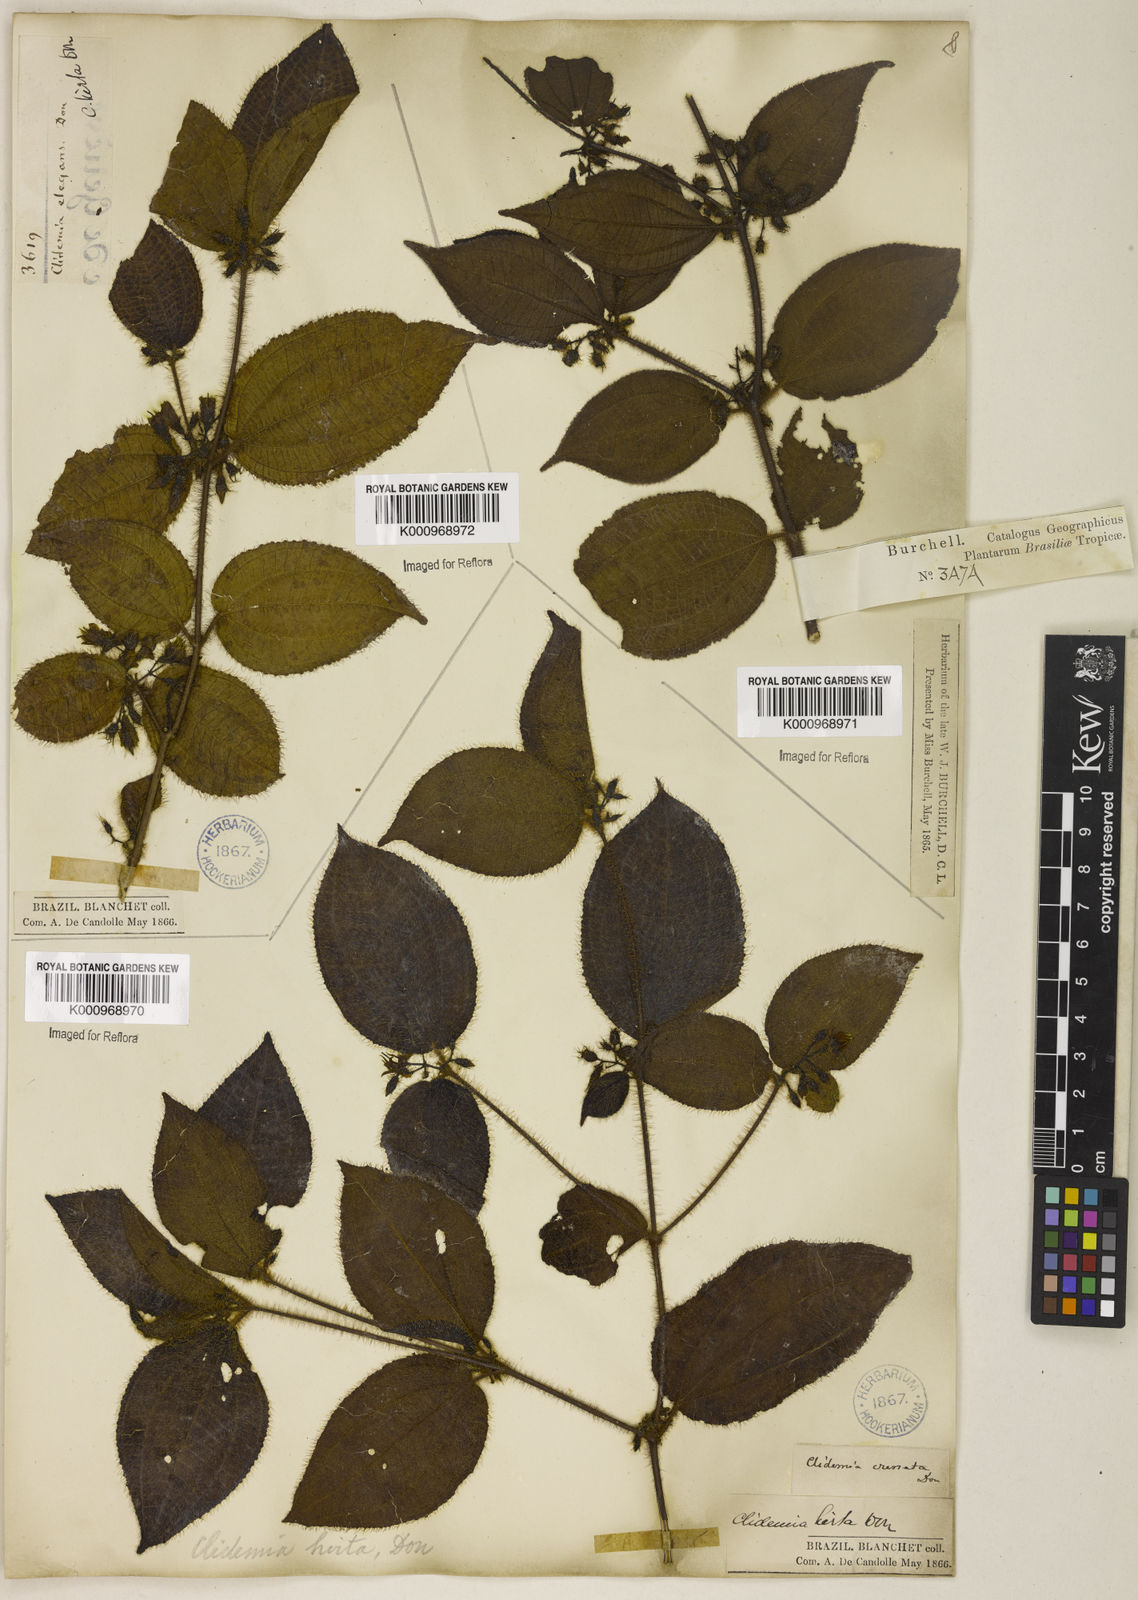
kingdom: Plantae
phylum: Tracheophyta
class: Magnoliopsida
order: Myrtales
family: Melastomataceae
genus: Miconia
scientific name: Miconia crenata
